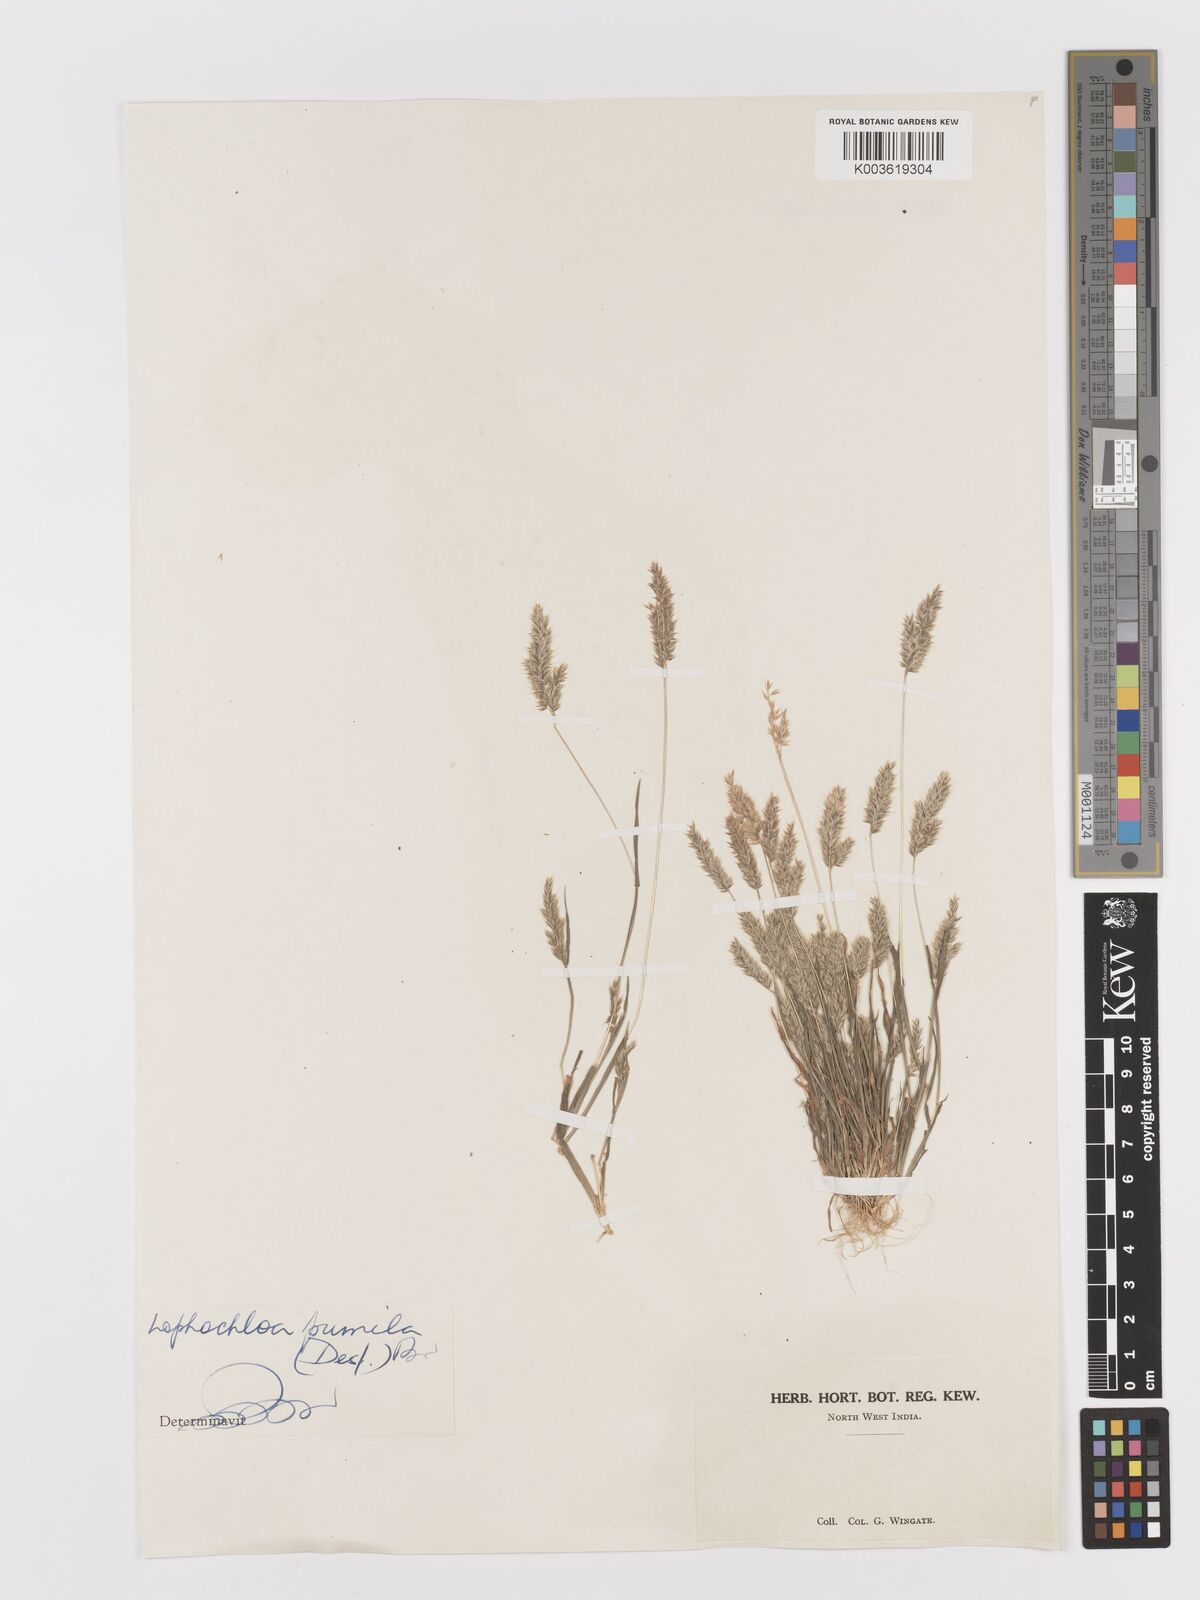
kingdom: Plantae
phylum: Tracheophyta
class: Liliopsida
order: Poales
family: Poaceae
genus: Rostraria
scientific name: Rostraria pumila
